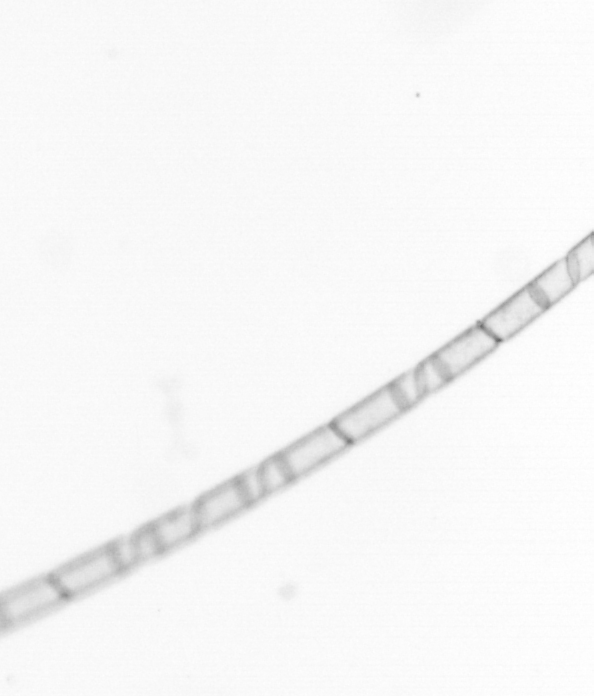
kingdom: Chromista
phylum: Ochrophyta
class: Bacillariophyceae
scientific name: Bacillariophyceae
